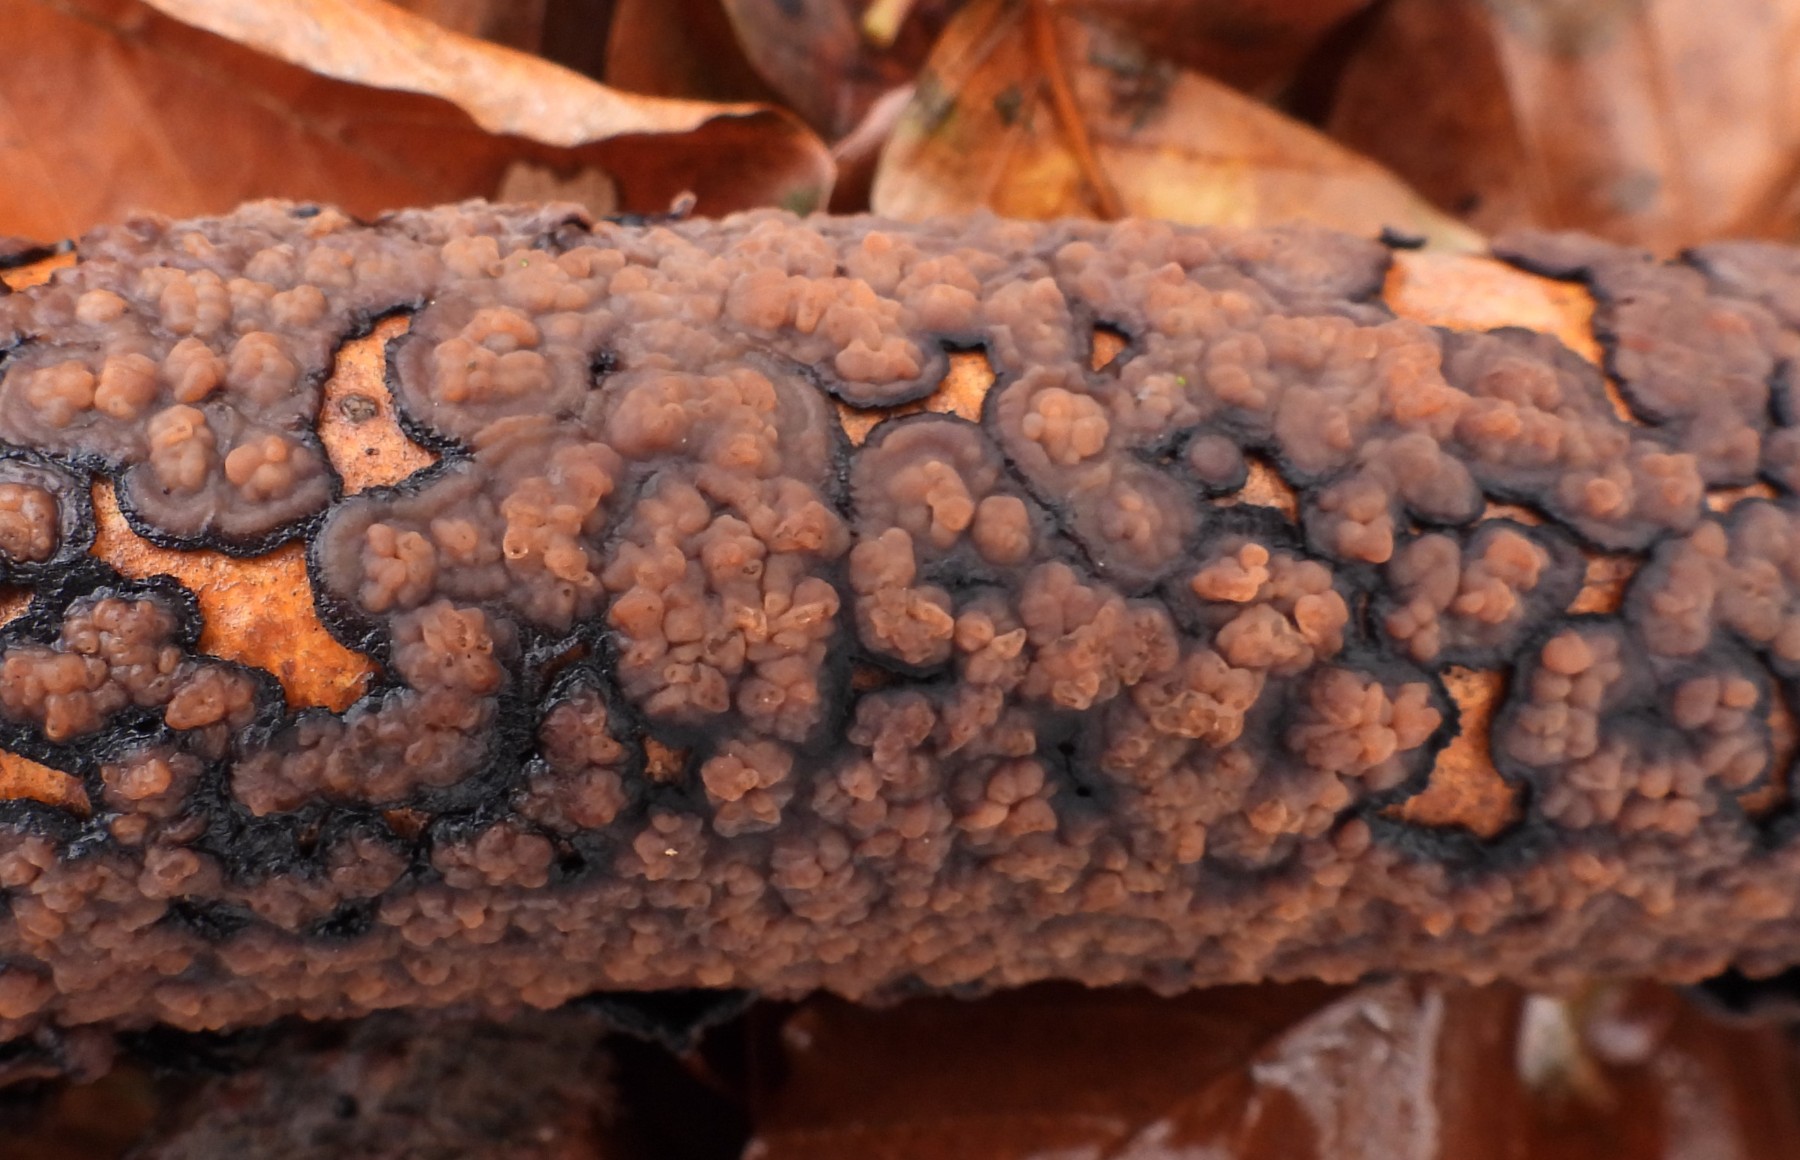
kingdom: Fungi
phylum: Basidiomycota
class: Agaricomycetes
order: Russulales
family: Peniophoraceae
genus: Peniophora
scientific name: Peniophora quercina
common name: ege-voksskind
